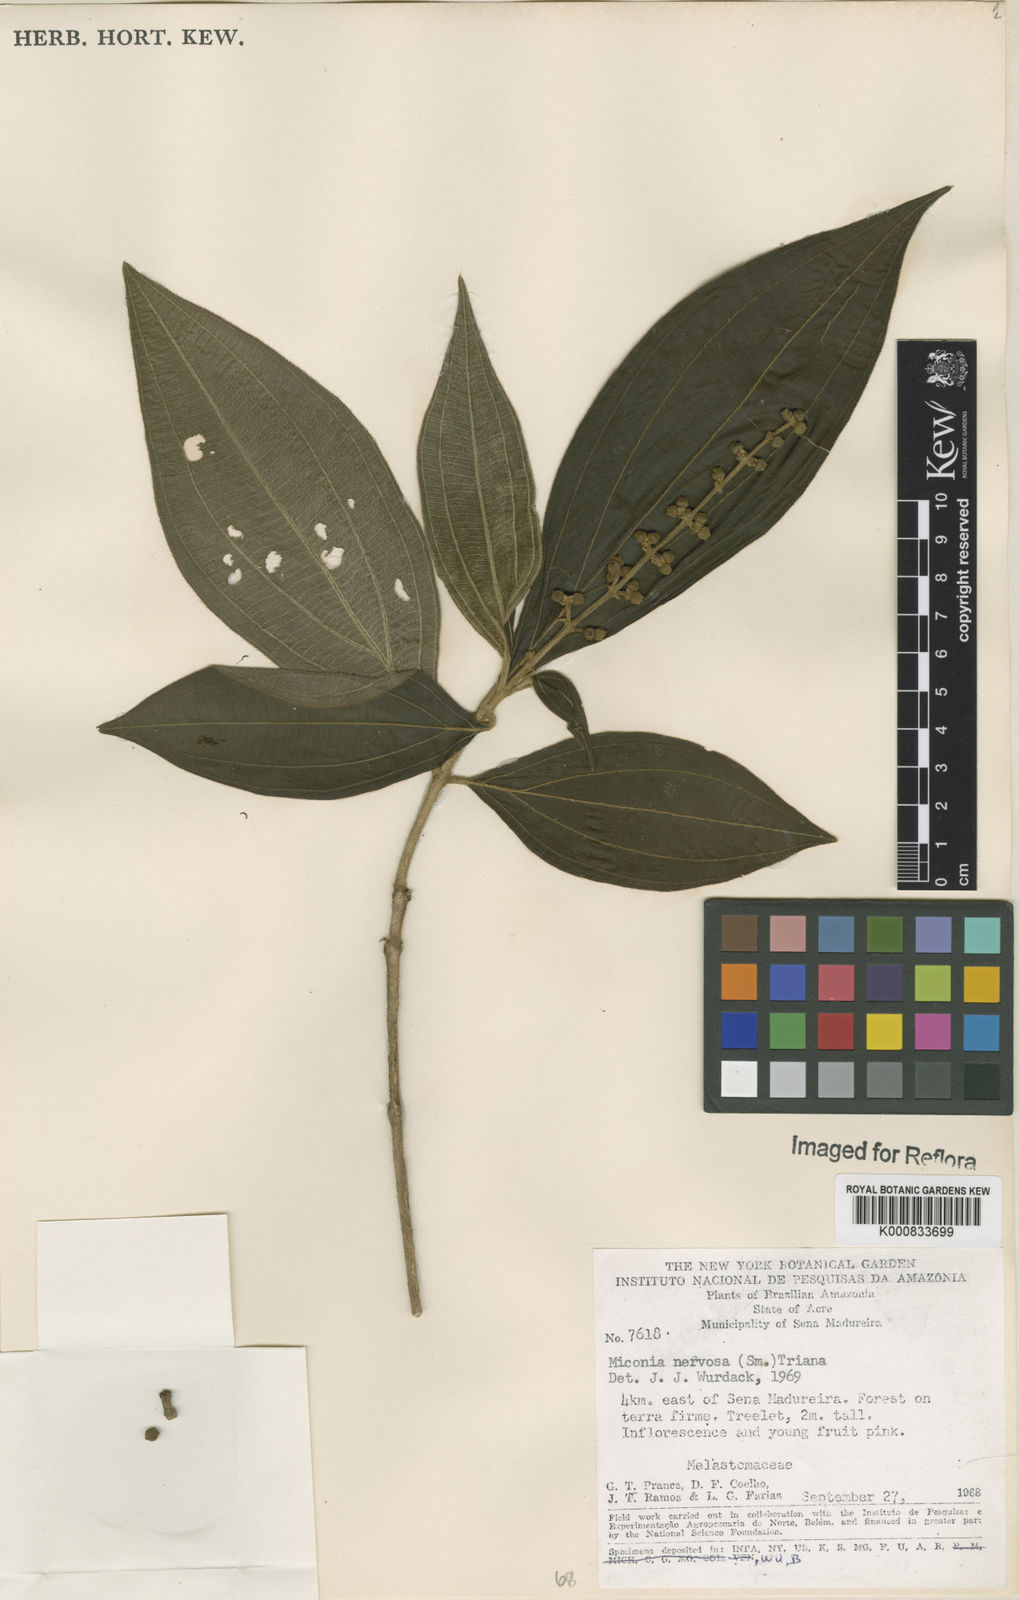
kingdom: Plantae
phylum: Tracheophyta
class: Magnoliopsida
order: Myrtales
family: Melastomataceae
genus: Miconia
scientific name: Miconia nervosa
